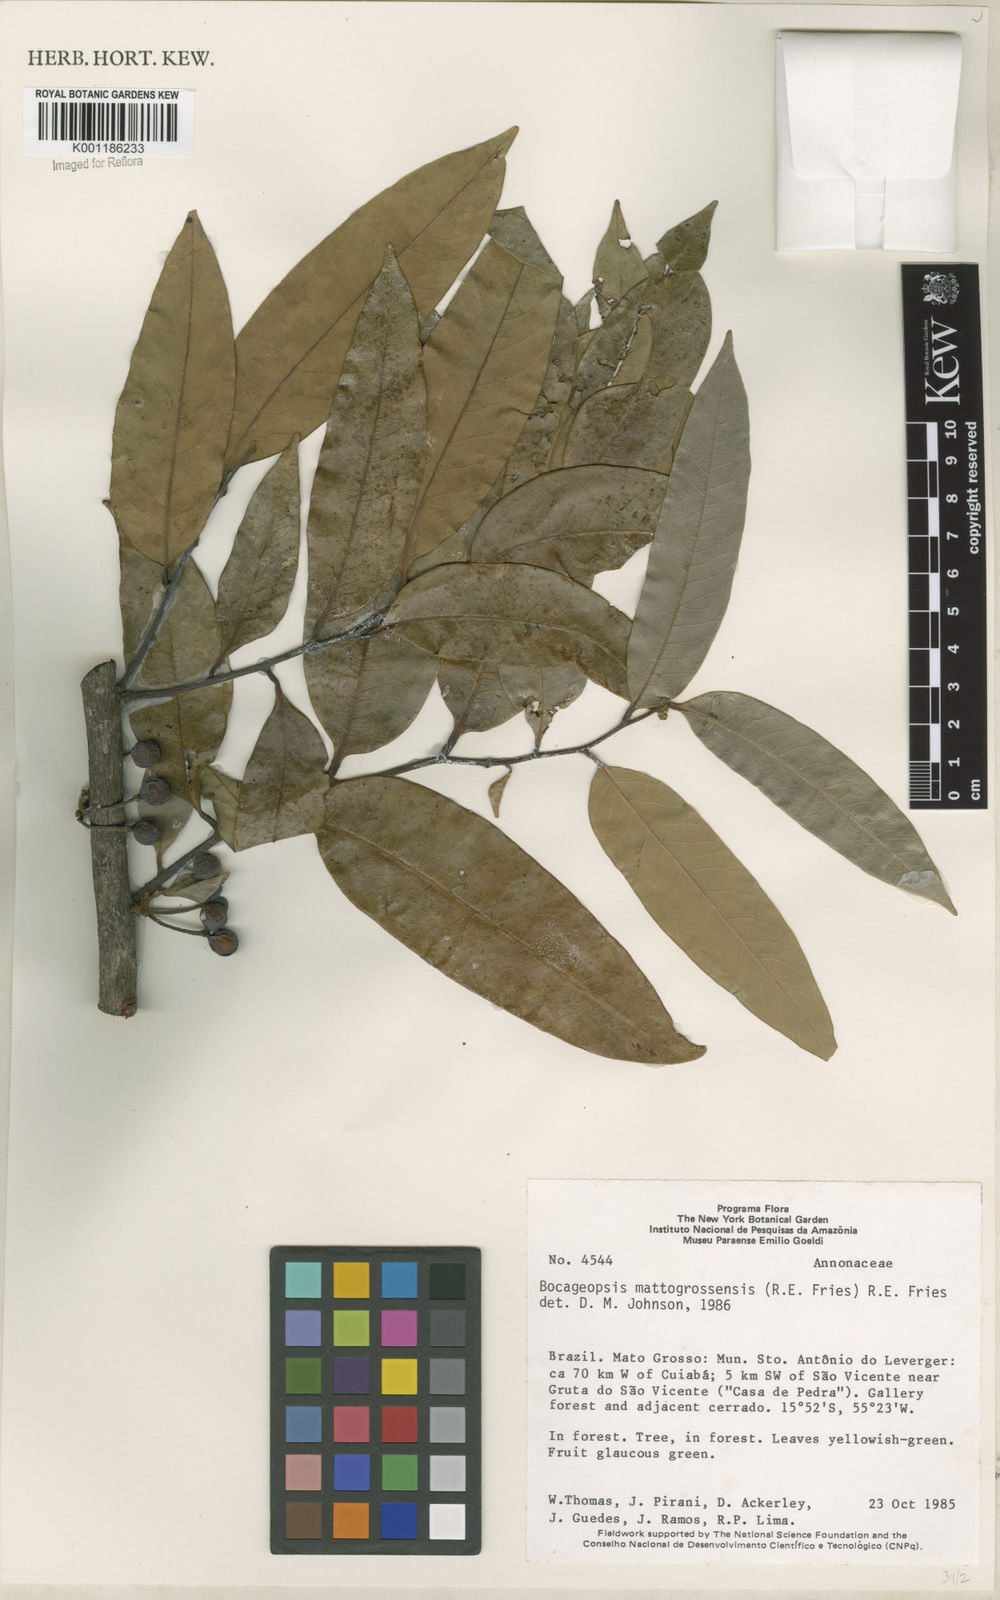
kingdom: Plantae
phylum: Tracheophyta
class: Magnoliopsida
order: Magnoliales
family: Annonaceae
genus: Bocageopsis
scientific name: Bocageopsis mattogrossensis
